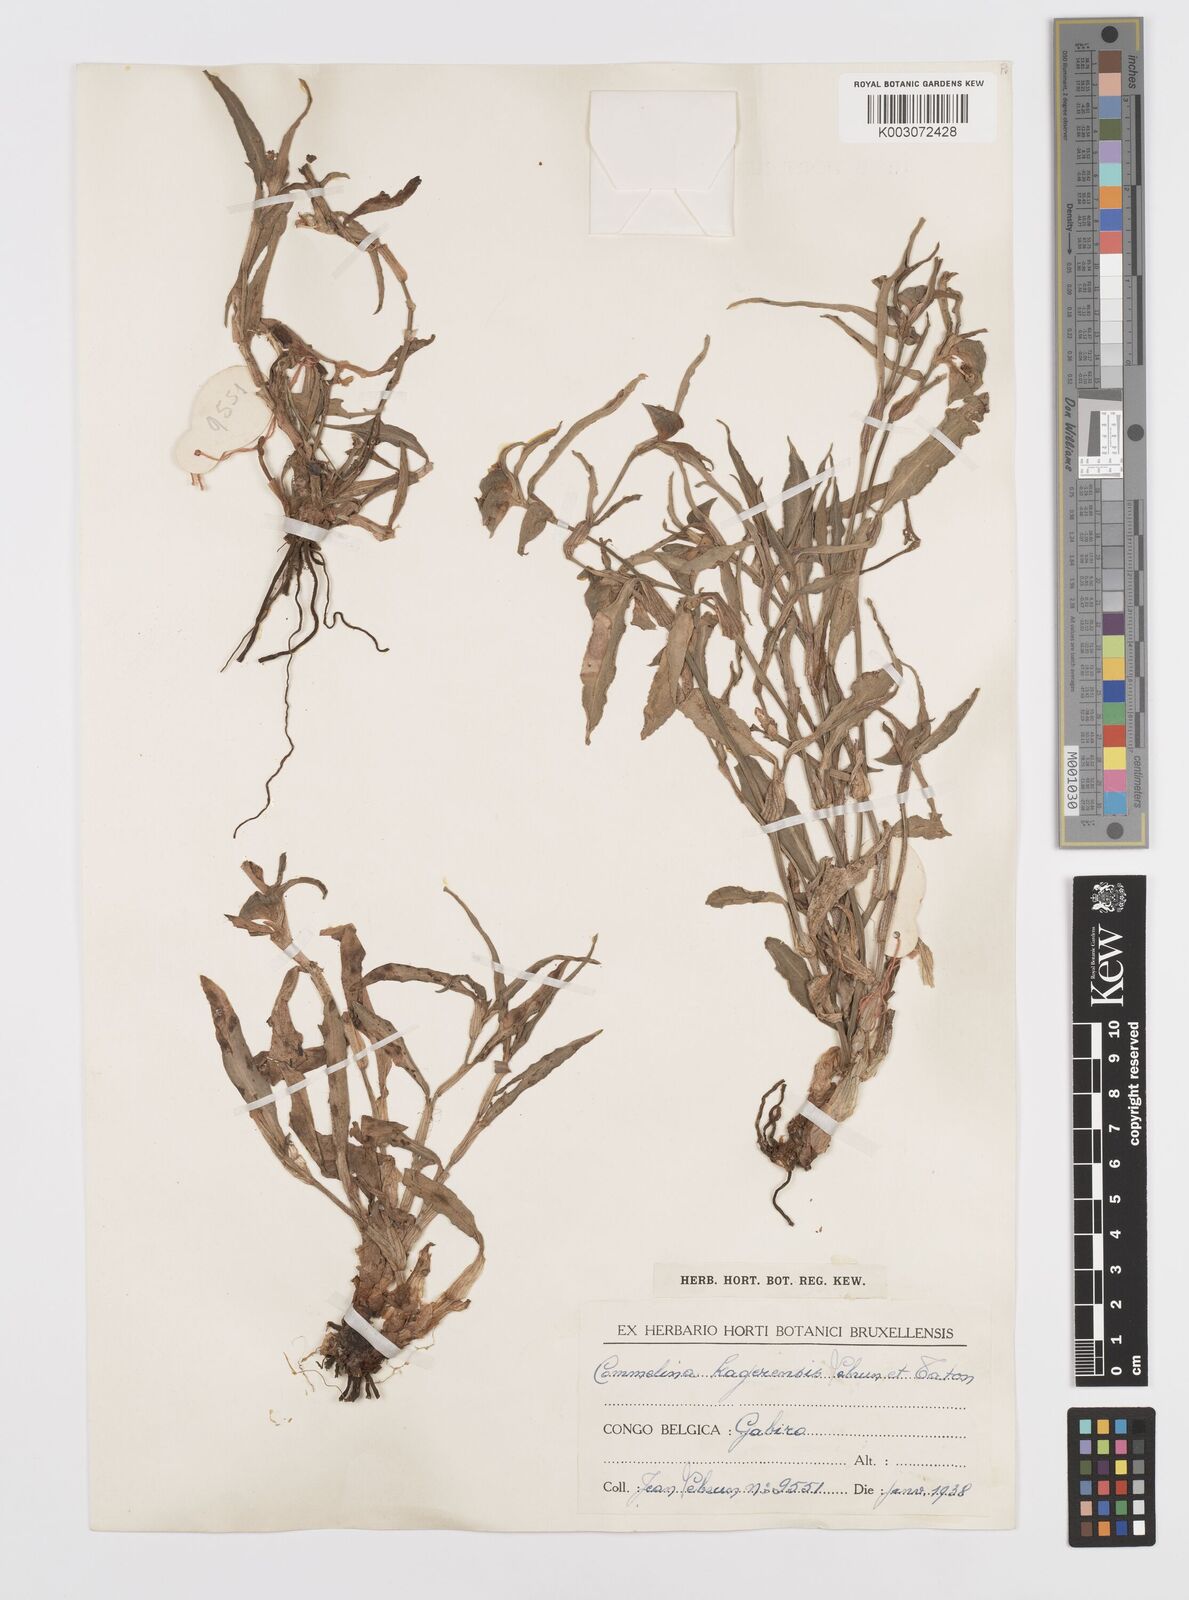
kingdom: Plantae
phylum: Tracheophyta
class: Liliopsida
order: Commelinales
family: Commelinaceae
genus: Commelina
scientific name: Commelina erecta
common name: Blousel blommetjie
